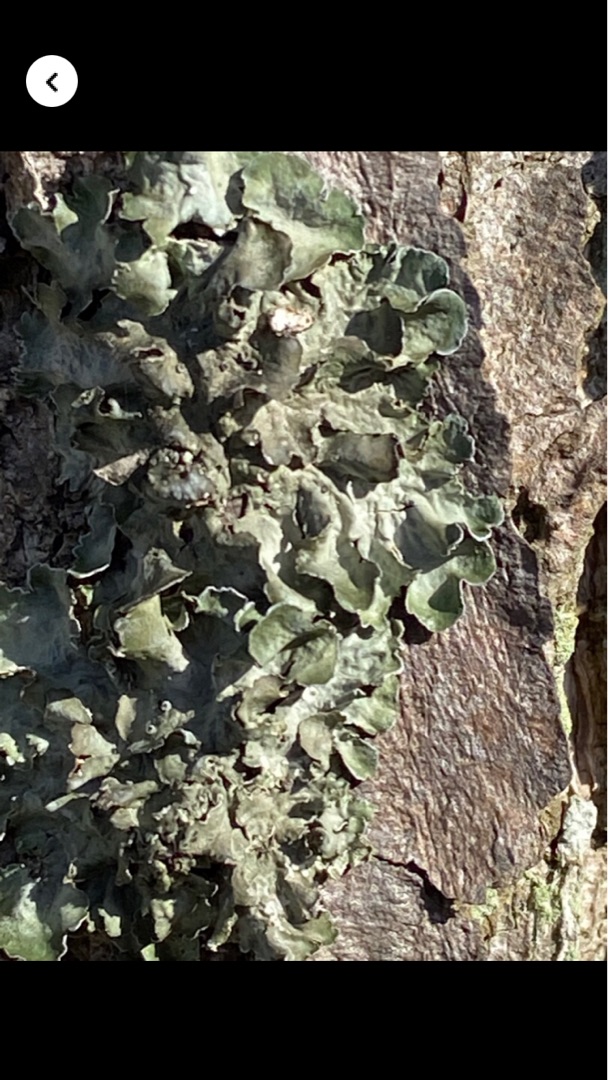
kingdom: Fungi
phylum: Ascomycota
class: Lecanoromycetes
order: Lecanorales
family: Parmeliaceae
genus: Pleurosticta
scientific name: Pleurosticta acetabulum
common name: Stor skållav
